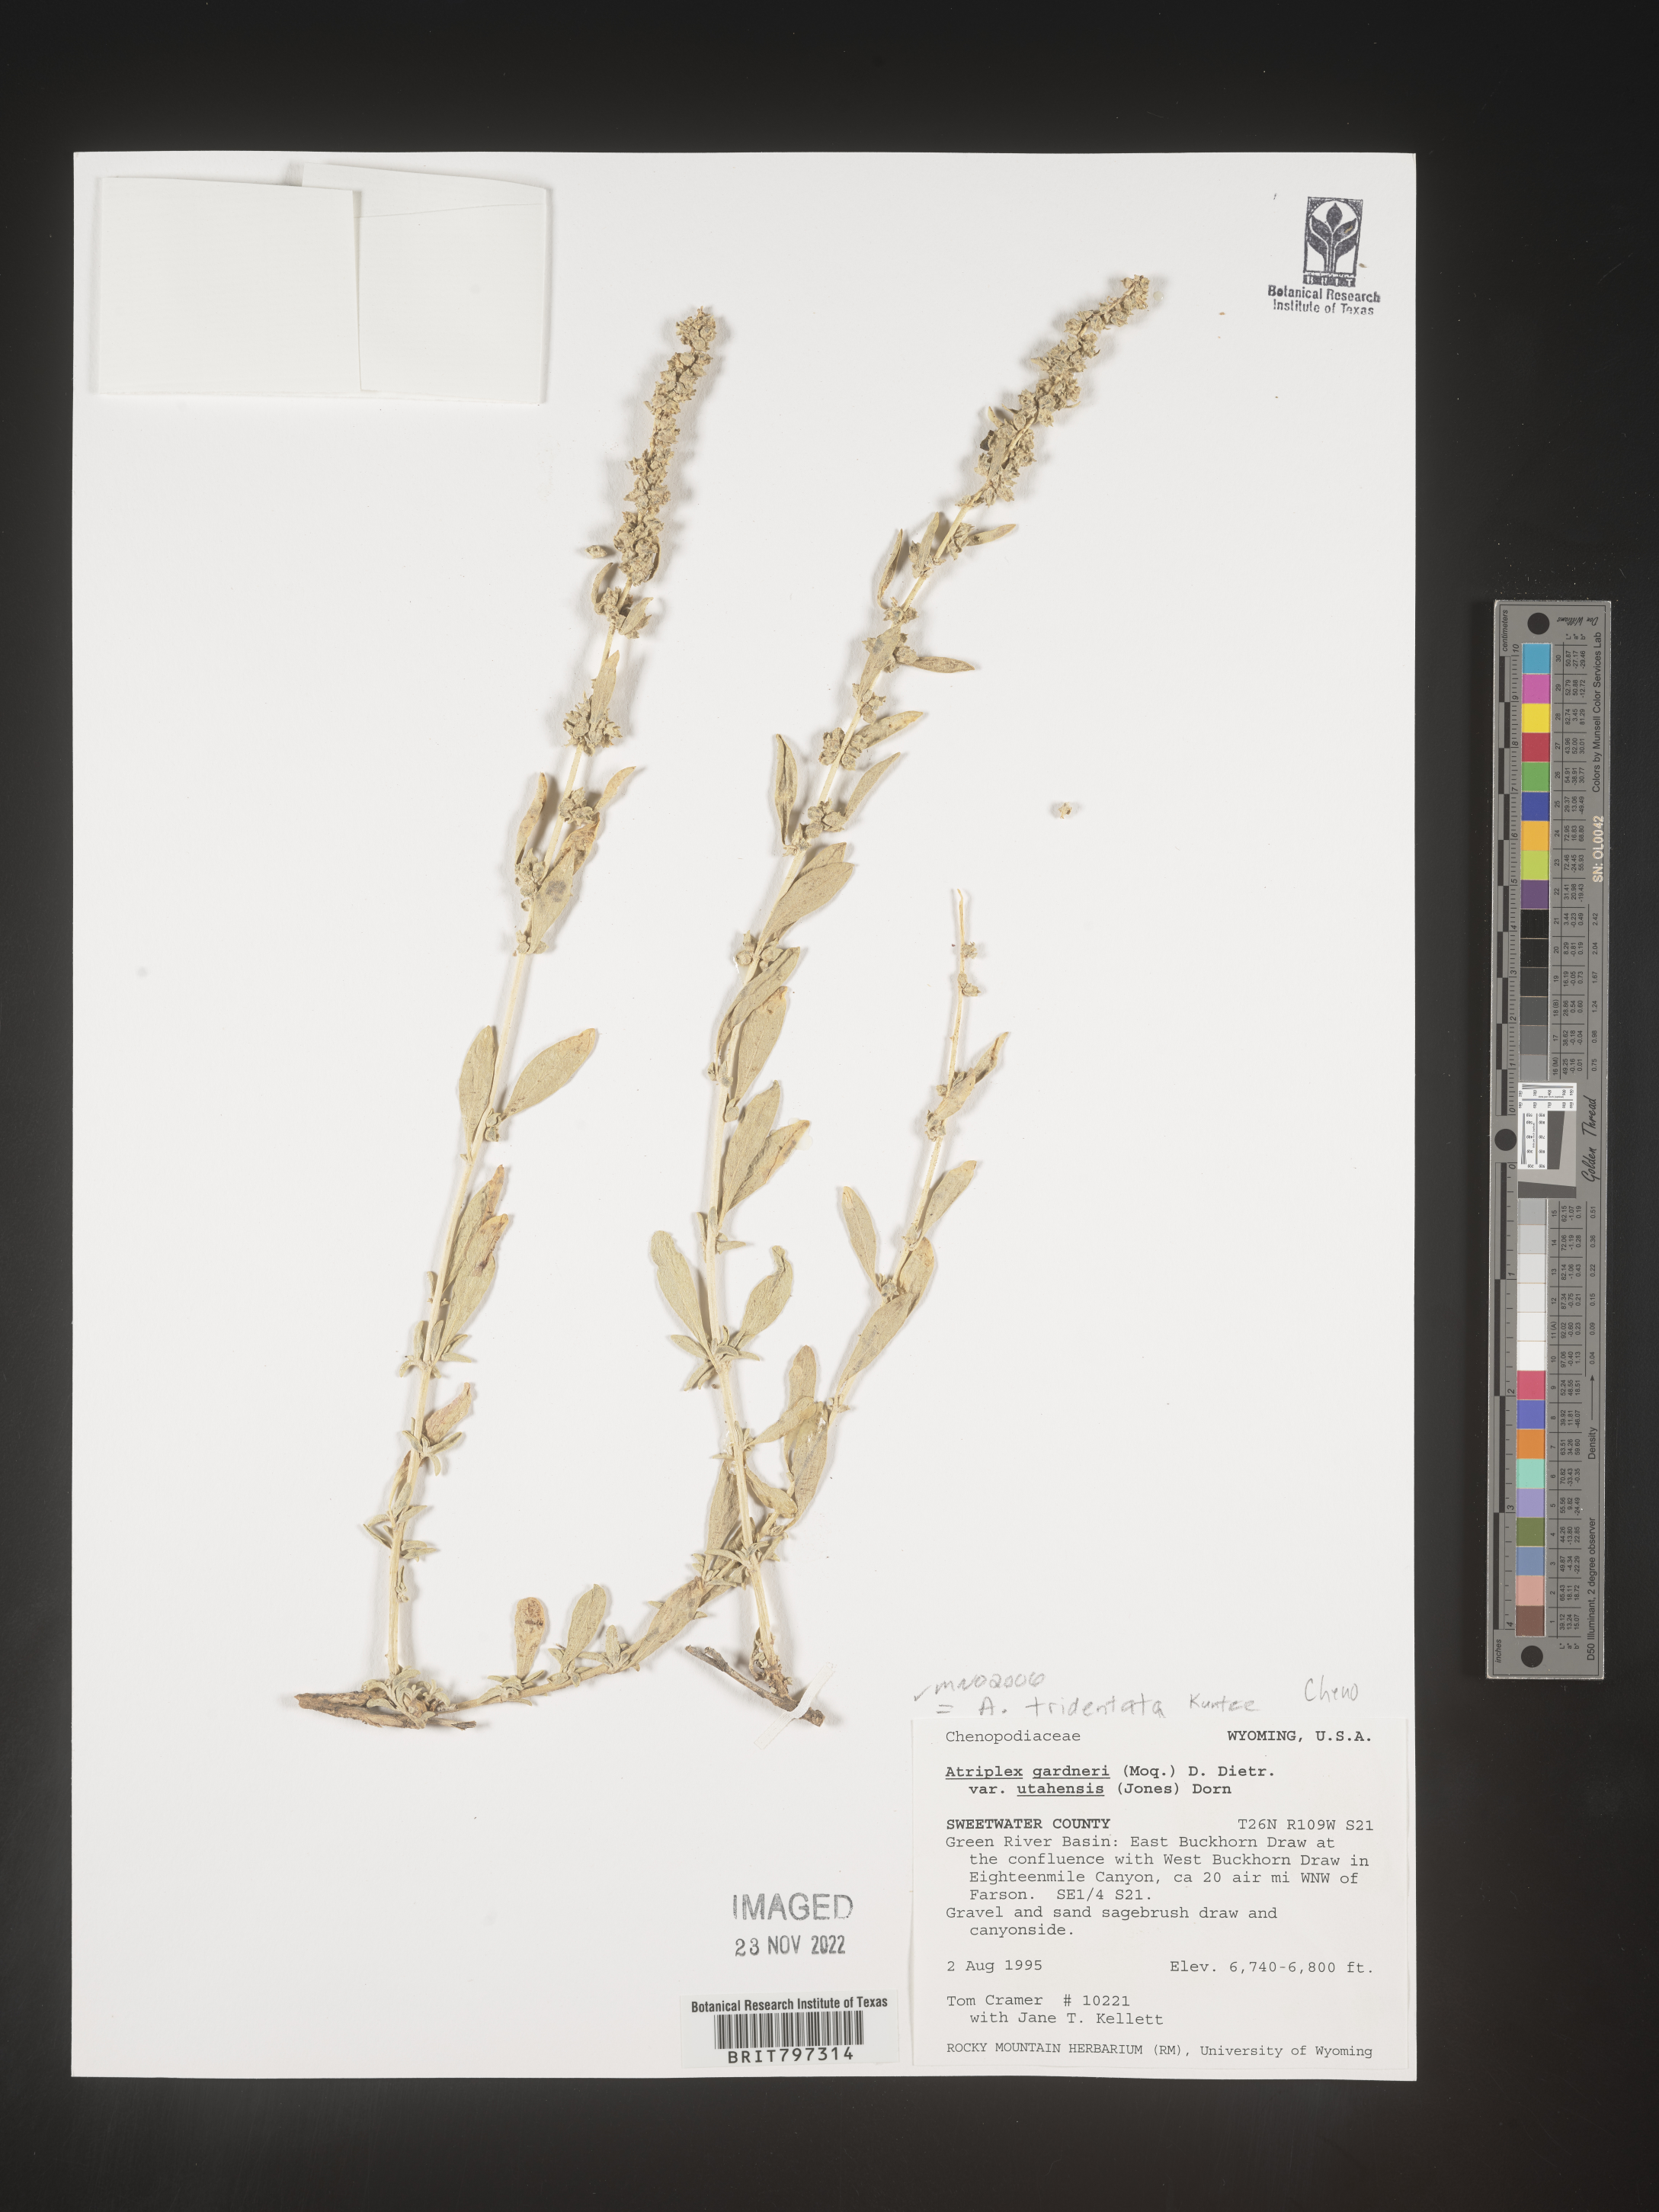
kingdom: Plantae
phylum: Tracheophyta
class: Magnoliopsida
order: Caryophyllales
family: Amaranthaceae
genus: Atriplex
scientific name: Atriplex
